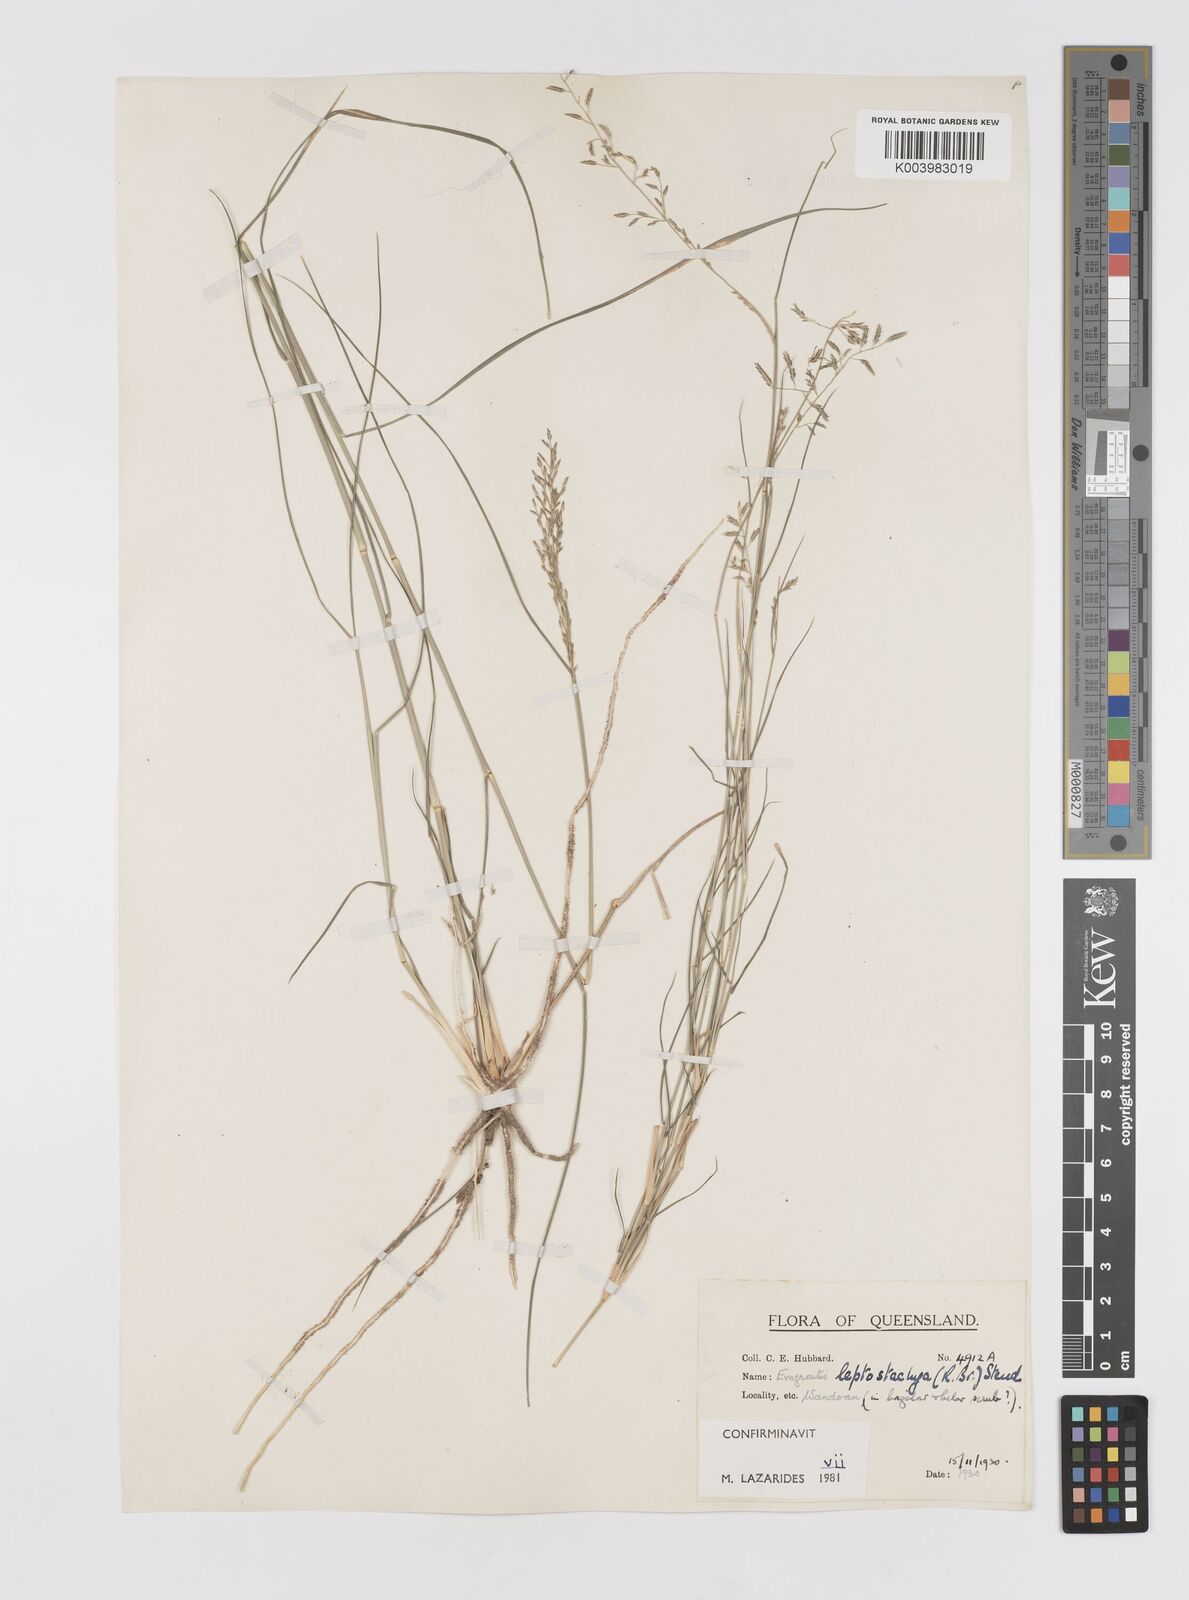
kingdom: Plantae
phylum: Tracheophyta
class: Liliopsida
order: Poales
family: Poaceae
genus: Eragrostis
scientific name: Eragrostis leptostachya
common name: Australian lovegrass
